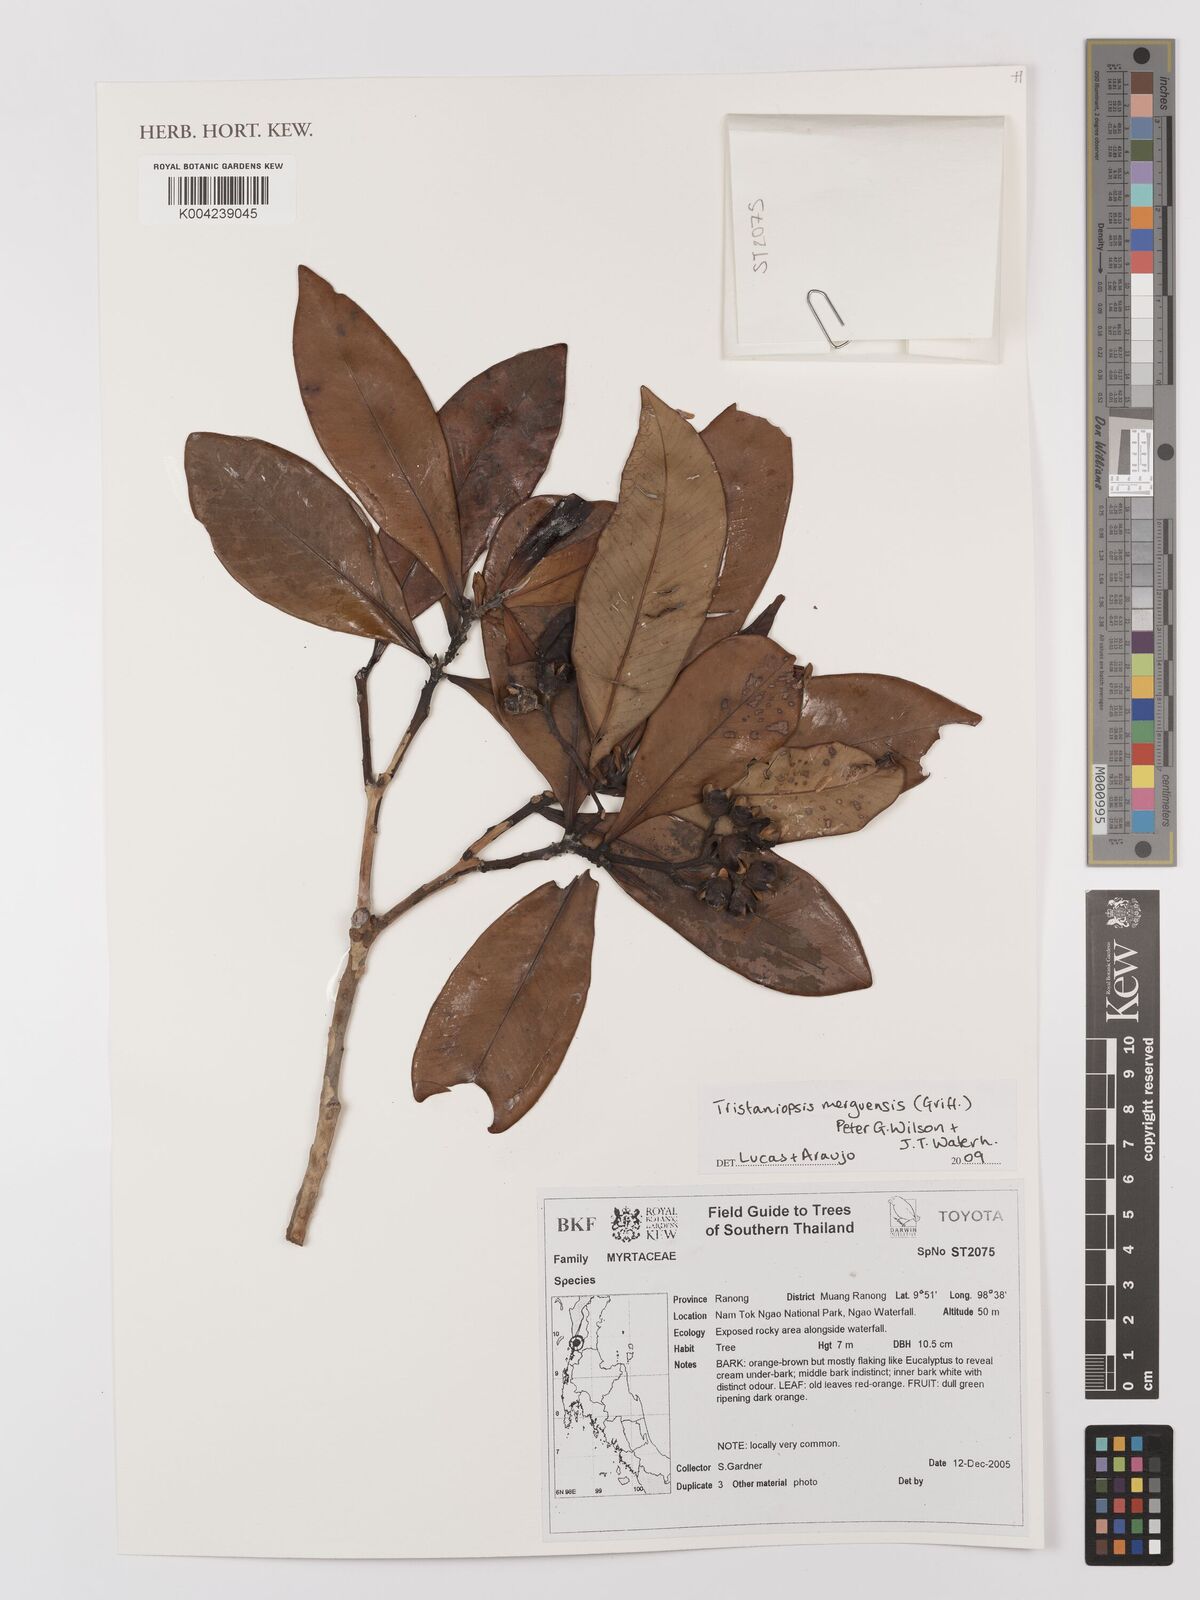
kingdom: Plantae
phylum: Tracheophyta
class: Magnoliopsida
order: Myrtales
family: Myrtaceae
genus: Tristaniopsis
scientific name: Tristaniopsis merguensis
